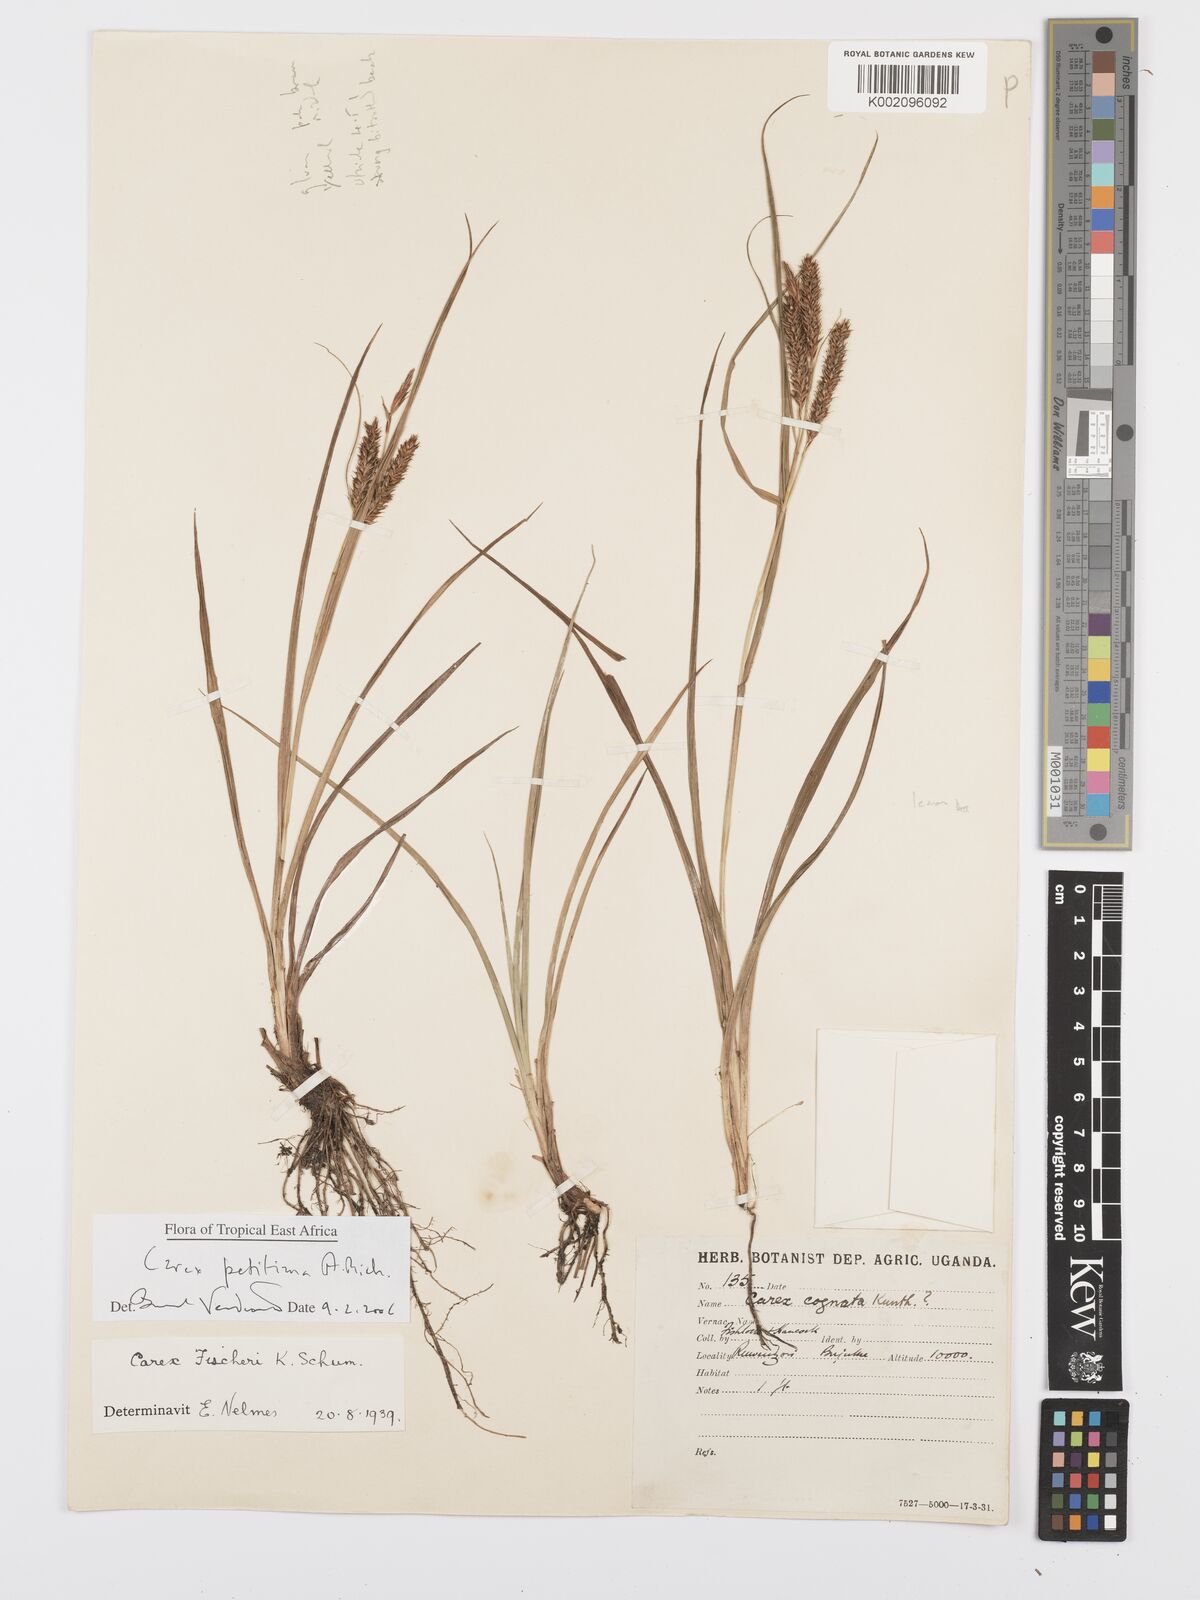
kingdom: Plantae
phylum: Tracheophyta
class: Liliopsida
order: Poales
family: Cyperaceae
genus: Carex
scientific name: Carex fischeri
